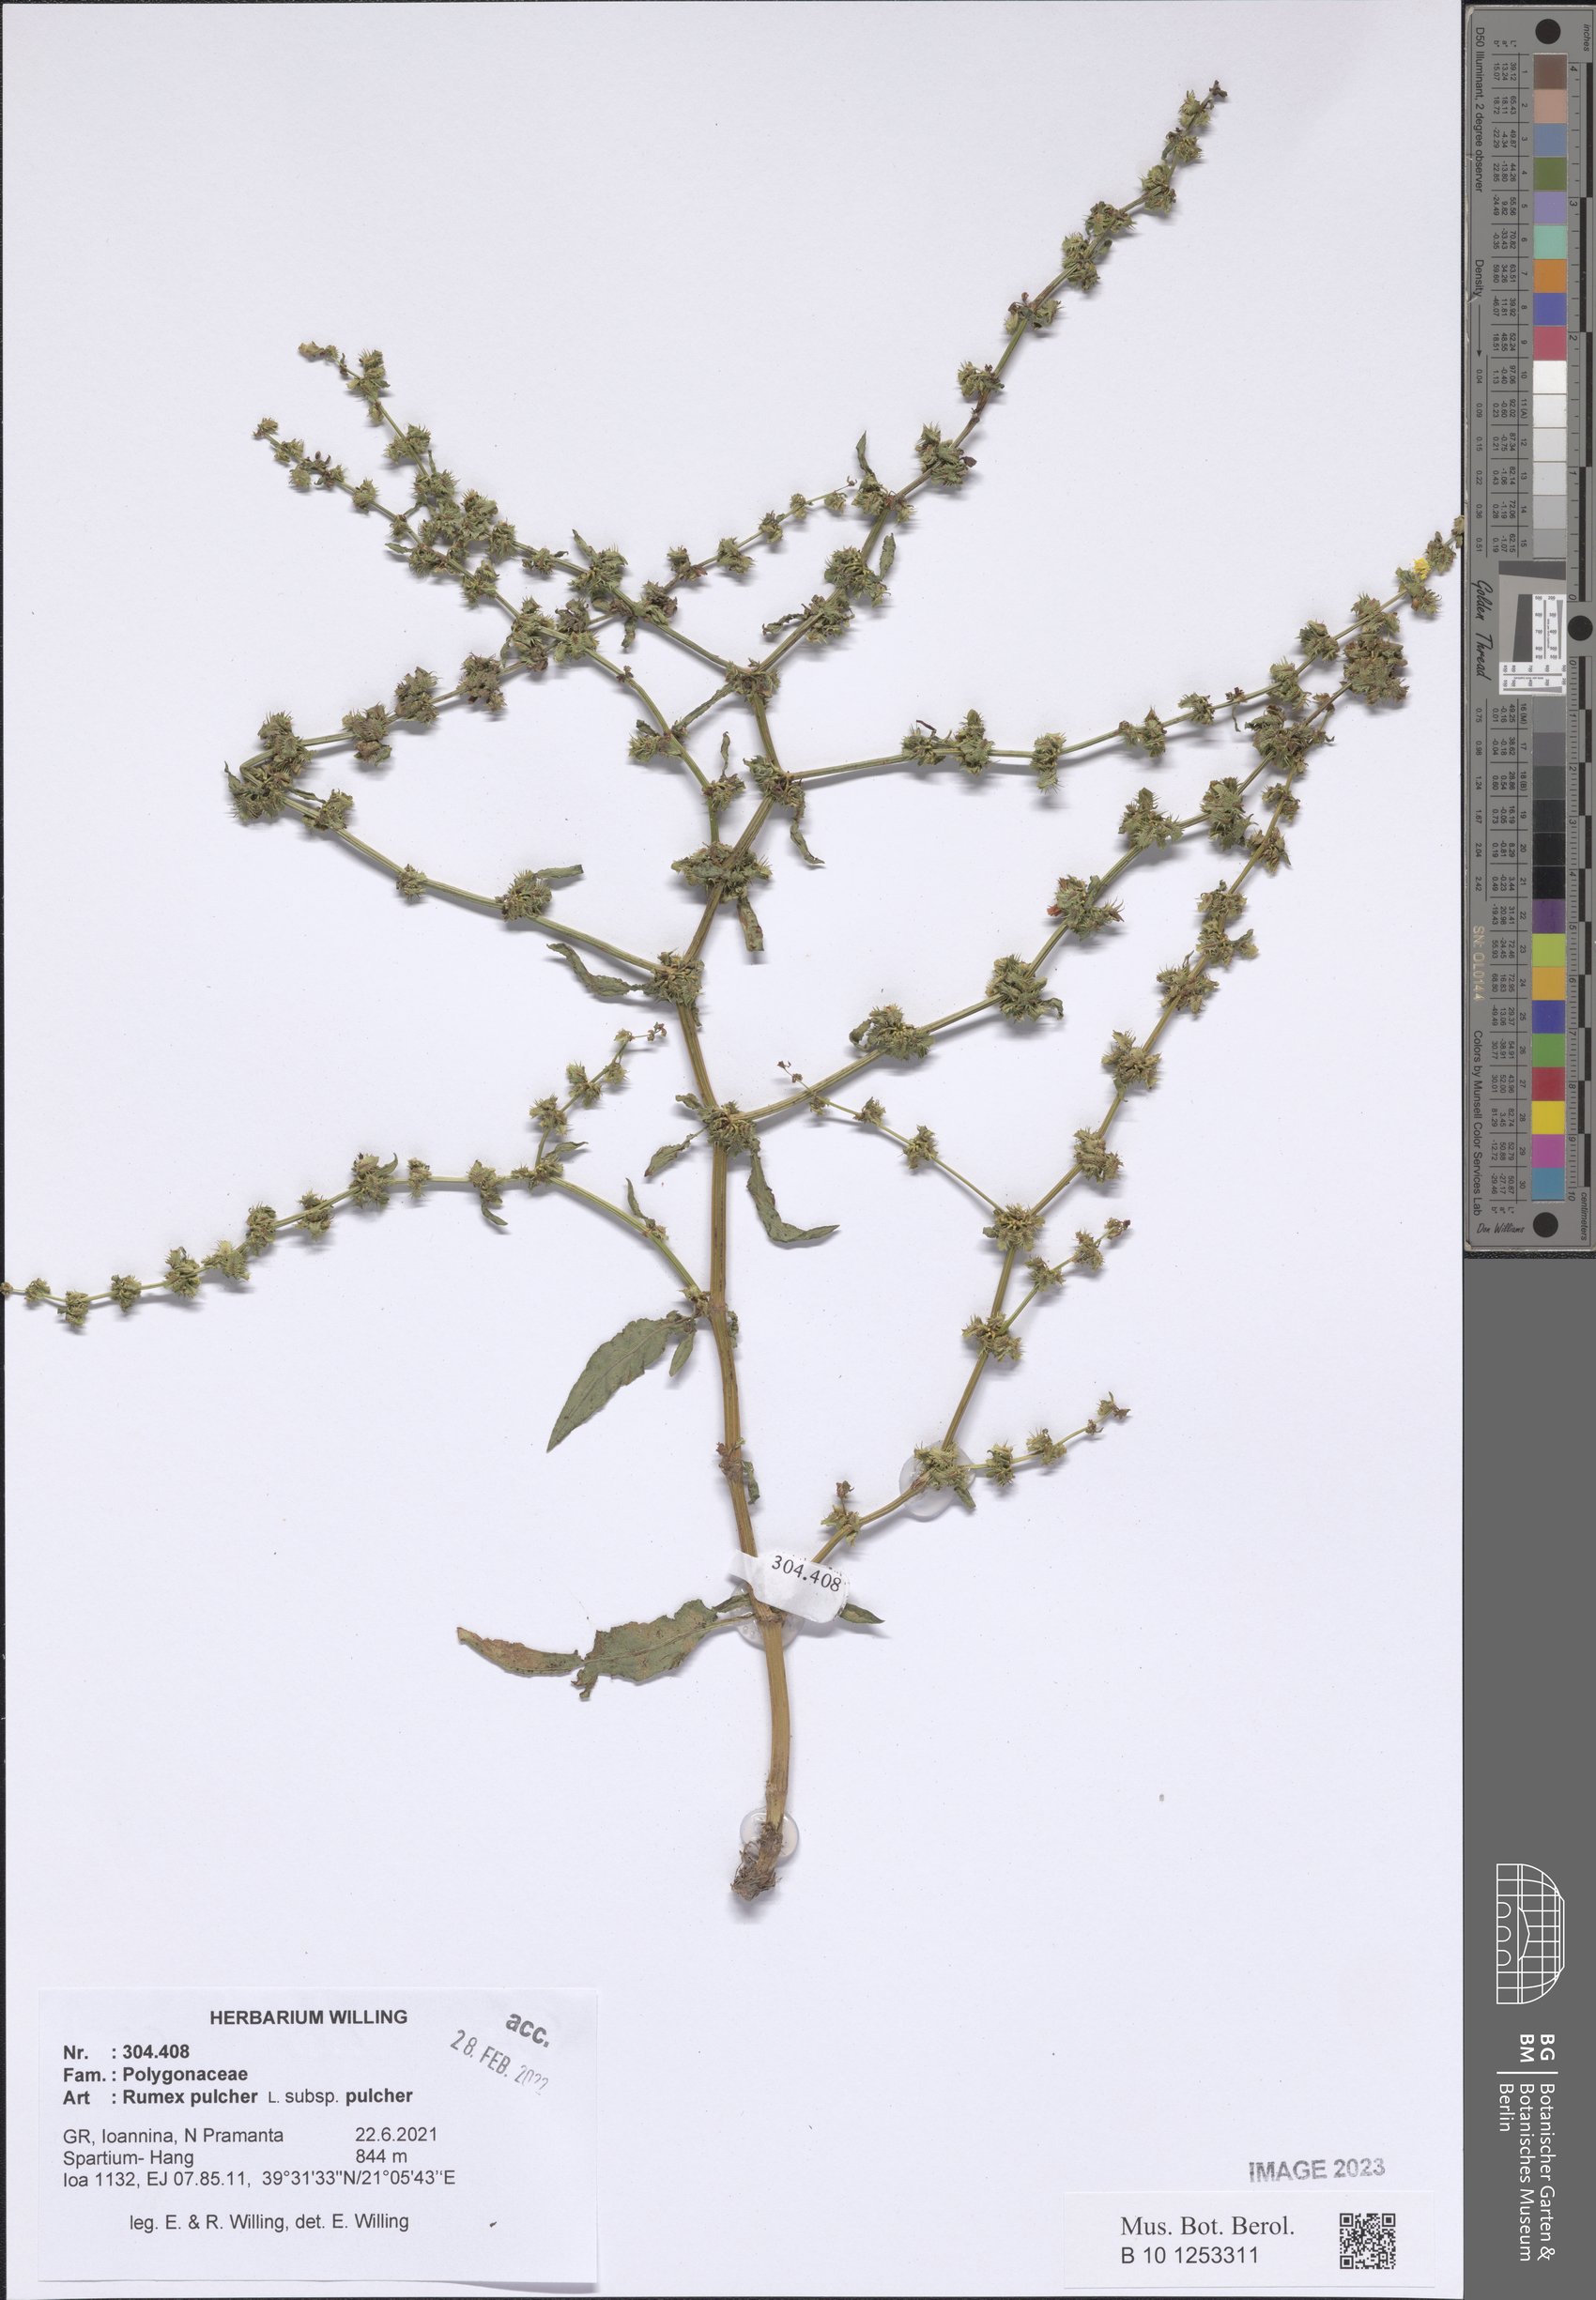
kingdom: Plantae
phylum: Tracheophyta
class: Magnoliopsida
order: Caryophyllales
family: Polygonaceae
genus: Rumex
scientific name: Rumex pulcher
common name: Fiddle dock
